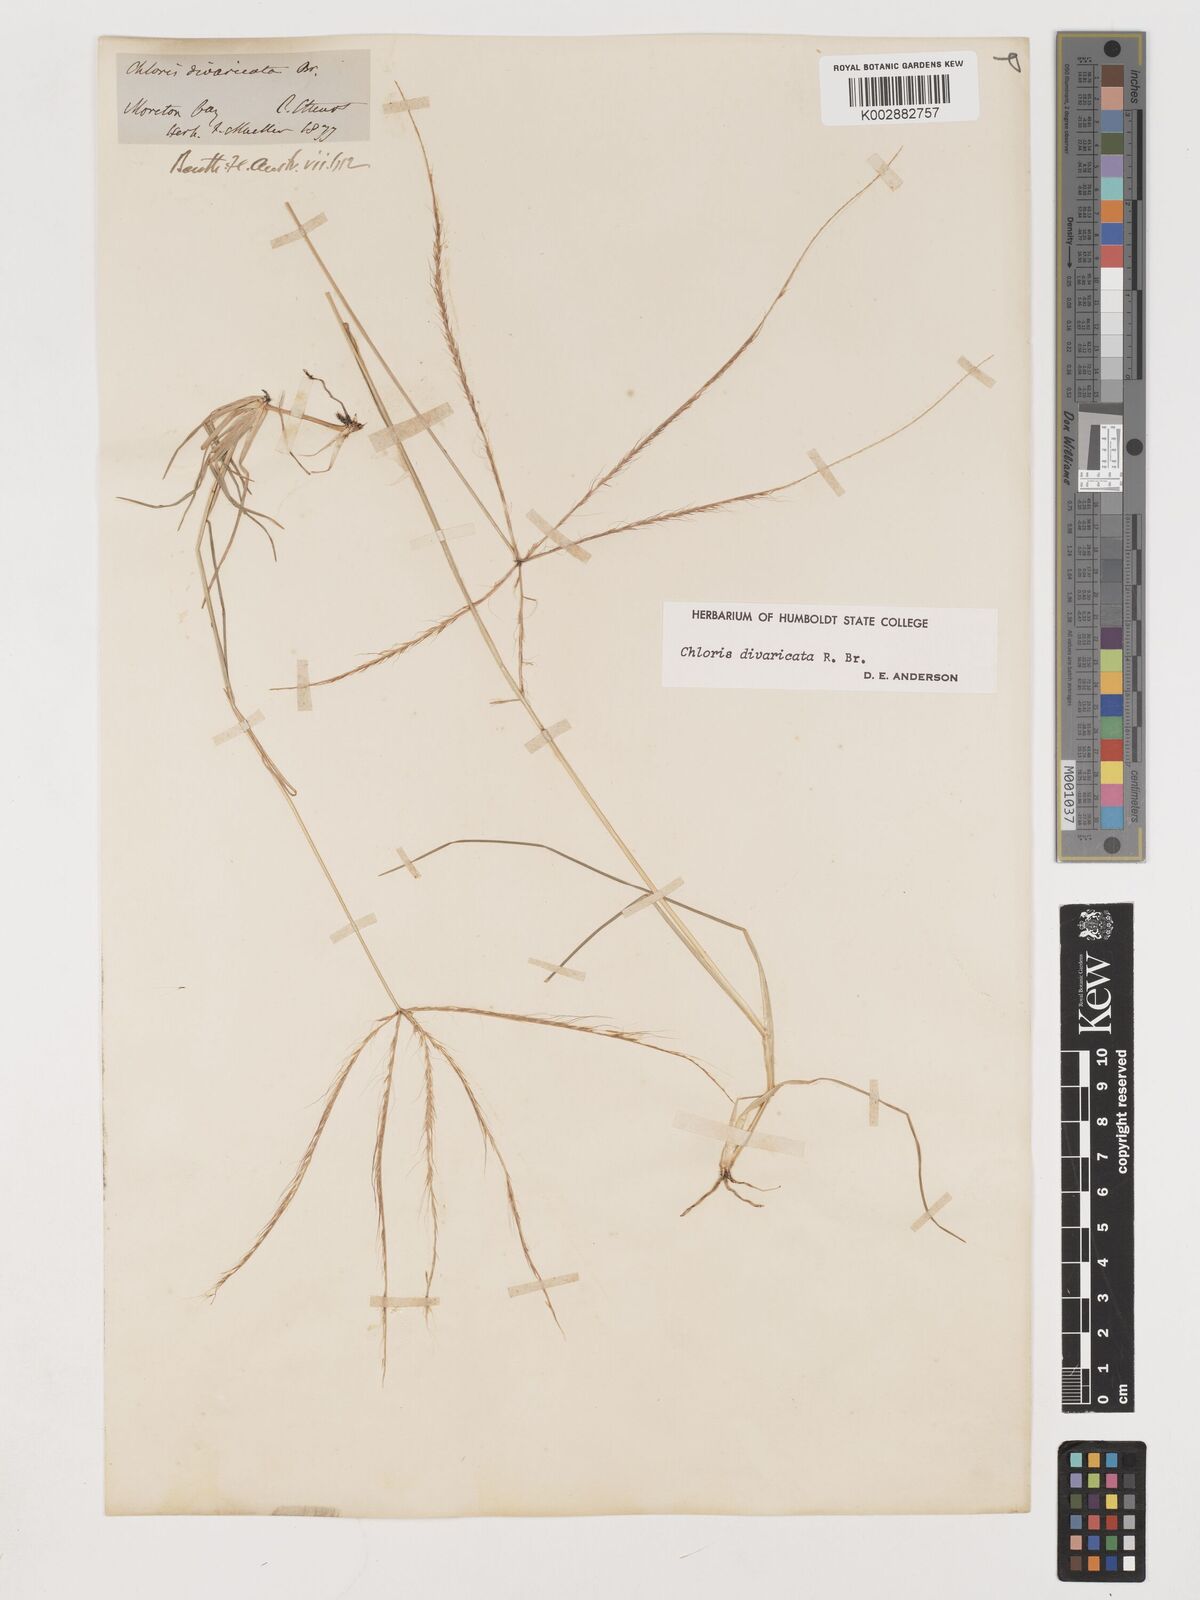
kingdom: Plantae
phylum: Tracheophyta
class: Liliopsida
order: Poales
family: Poaceae
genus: Chloris
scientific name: Chloris divaricata
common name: Spreading windmill grass
